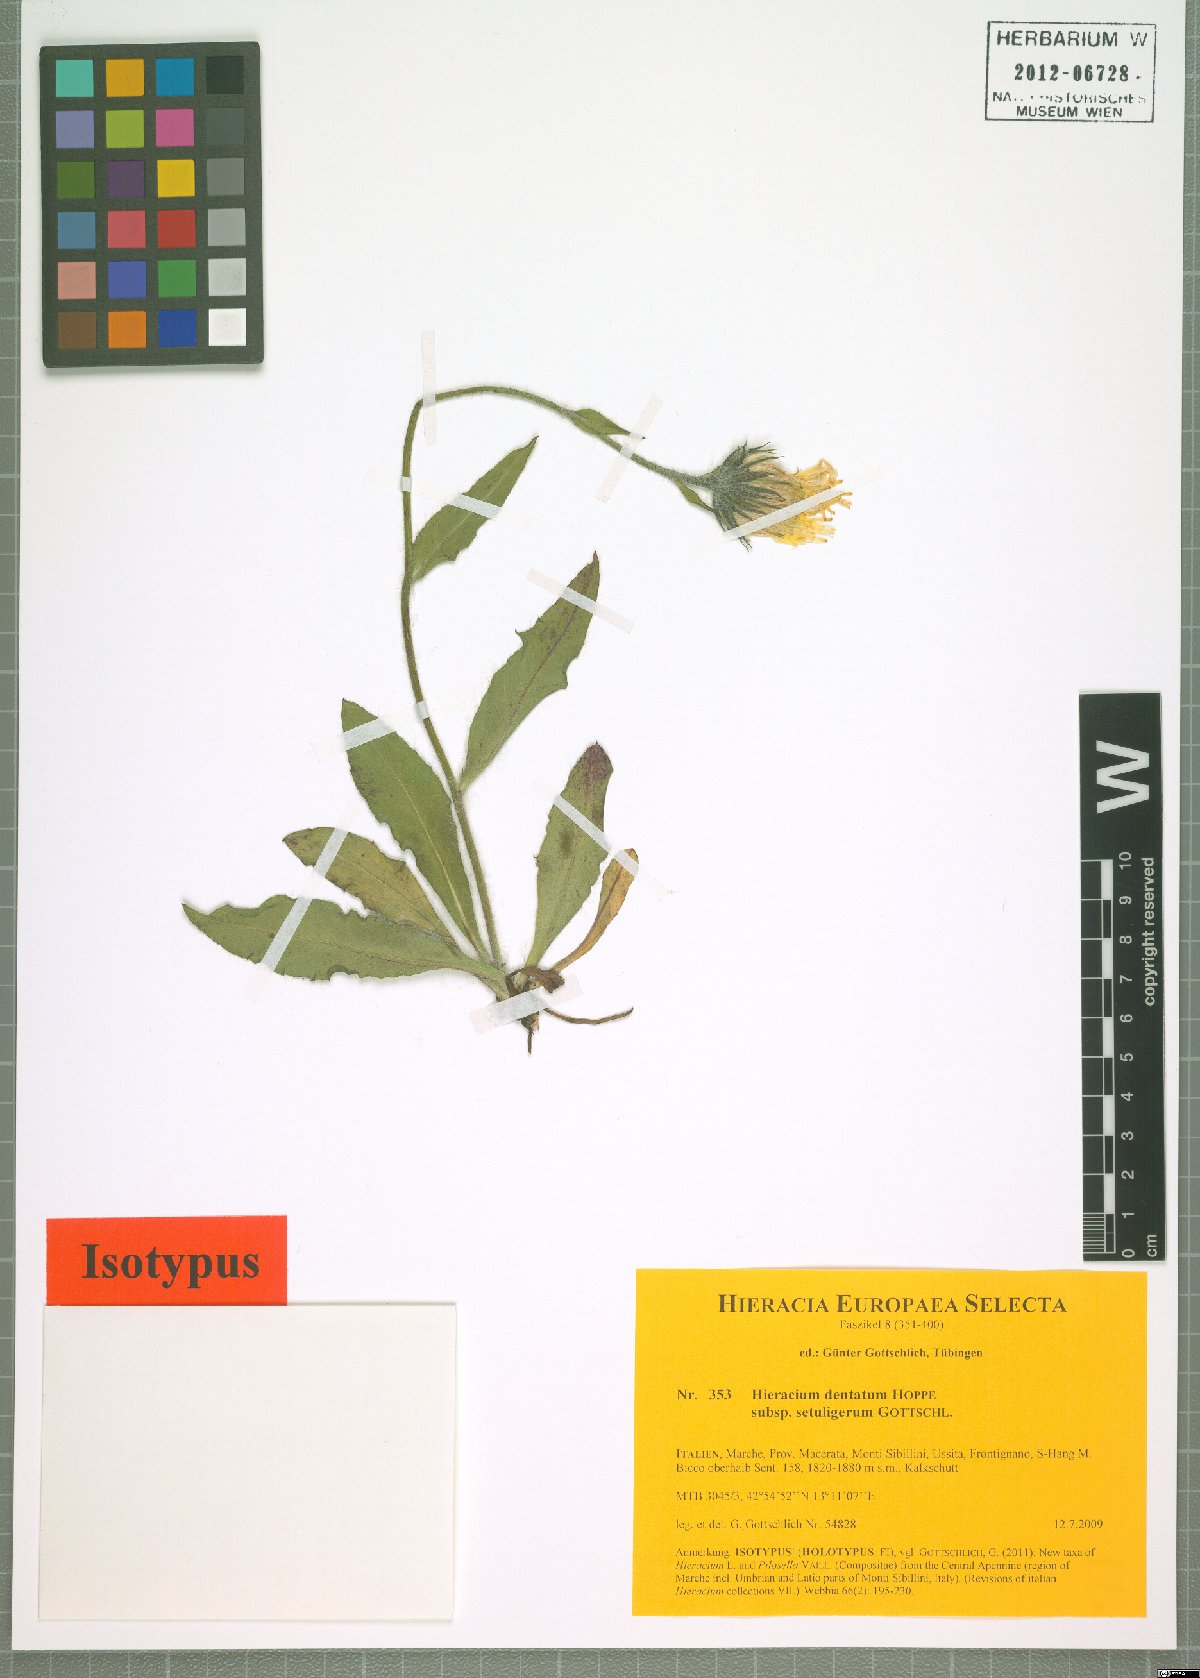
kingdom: Plantae
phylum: Tracheophyta
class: Magnoliopsida
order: Asterales
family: Asteraceae
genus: Hieracium
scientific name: Hieracium dentatum
